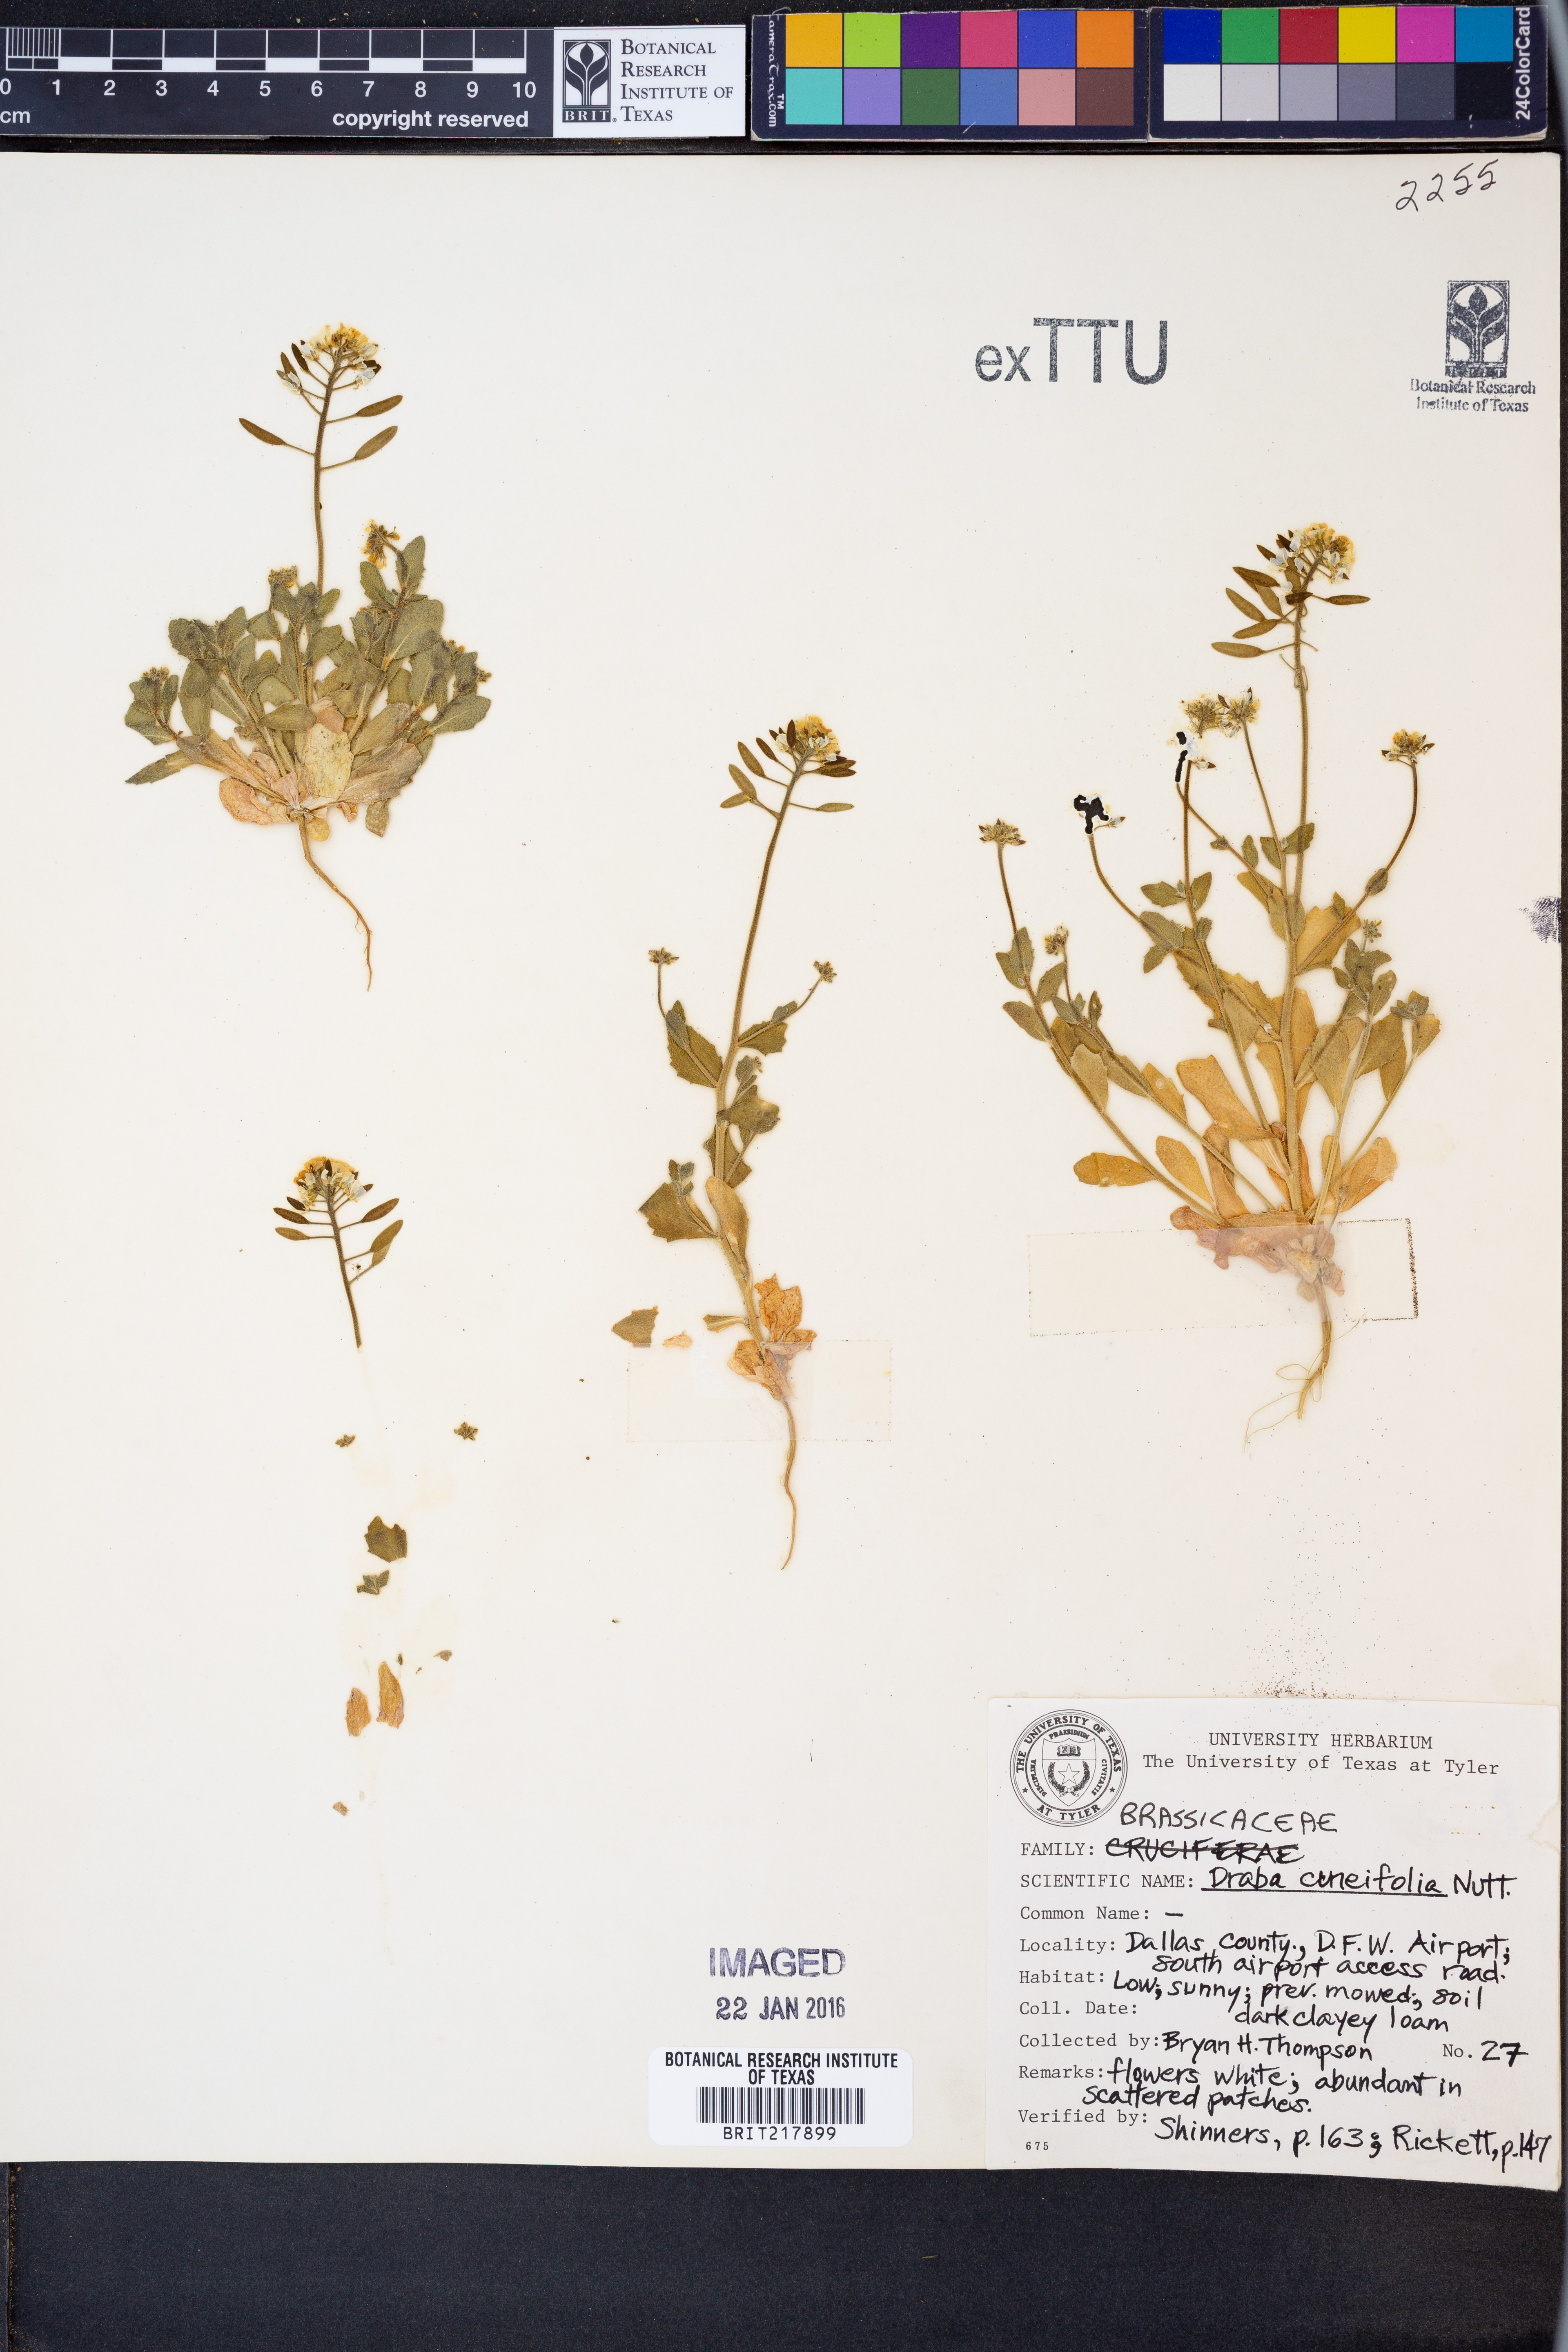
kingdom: Plantae
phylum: Tracheophyta
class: Magnoliopsida
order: Brassicales
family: Brassicaceae
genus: Tomostima
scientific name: Tomostima cuneifolia
